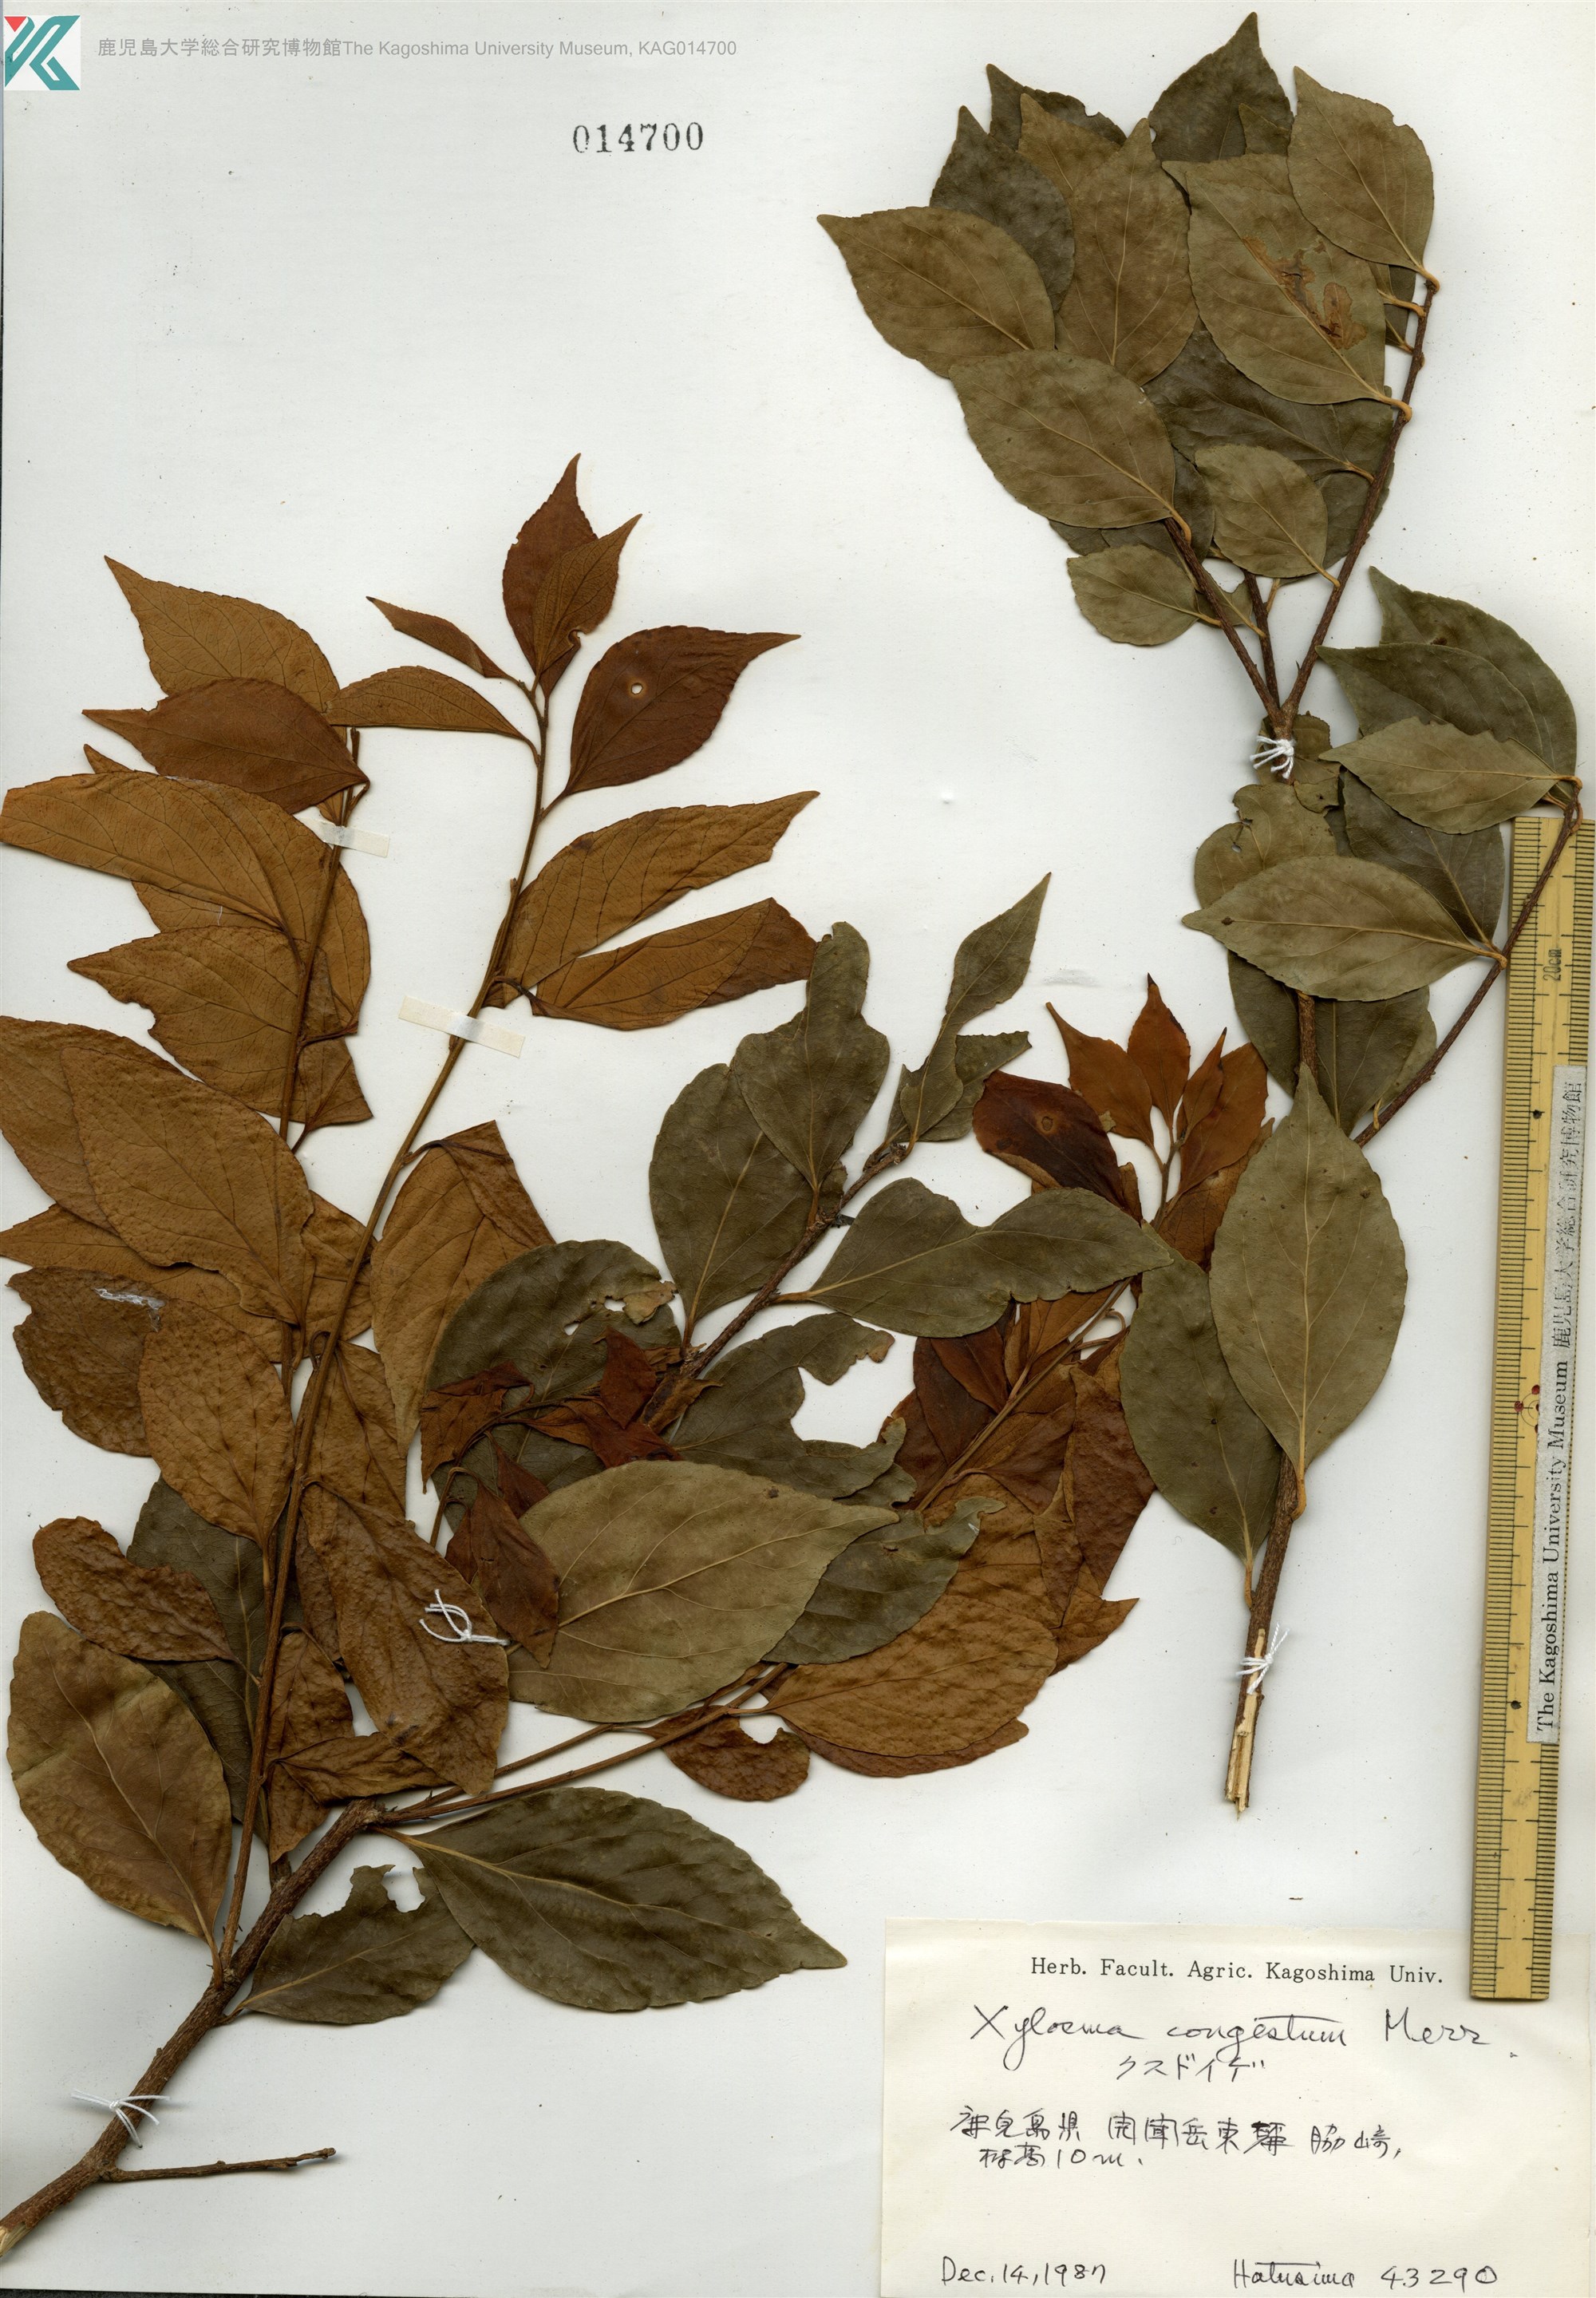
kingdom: Plantae
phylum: Tracheophyta
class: Magnoliopsida
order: Malpighiales
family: Salicaceae
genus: Xylosma
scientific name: Xylosma racemosum
